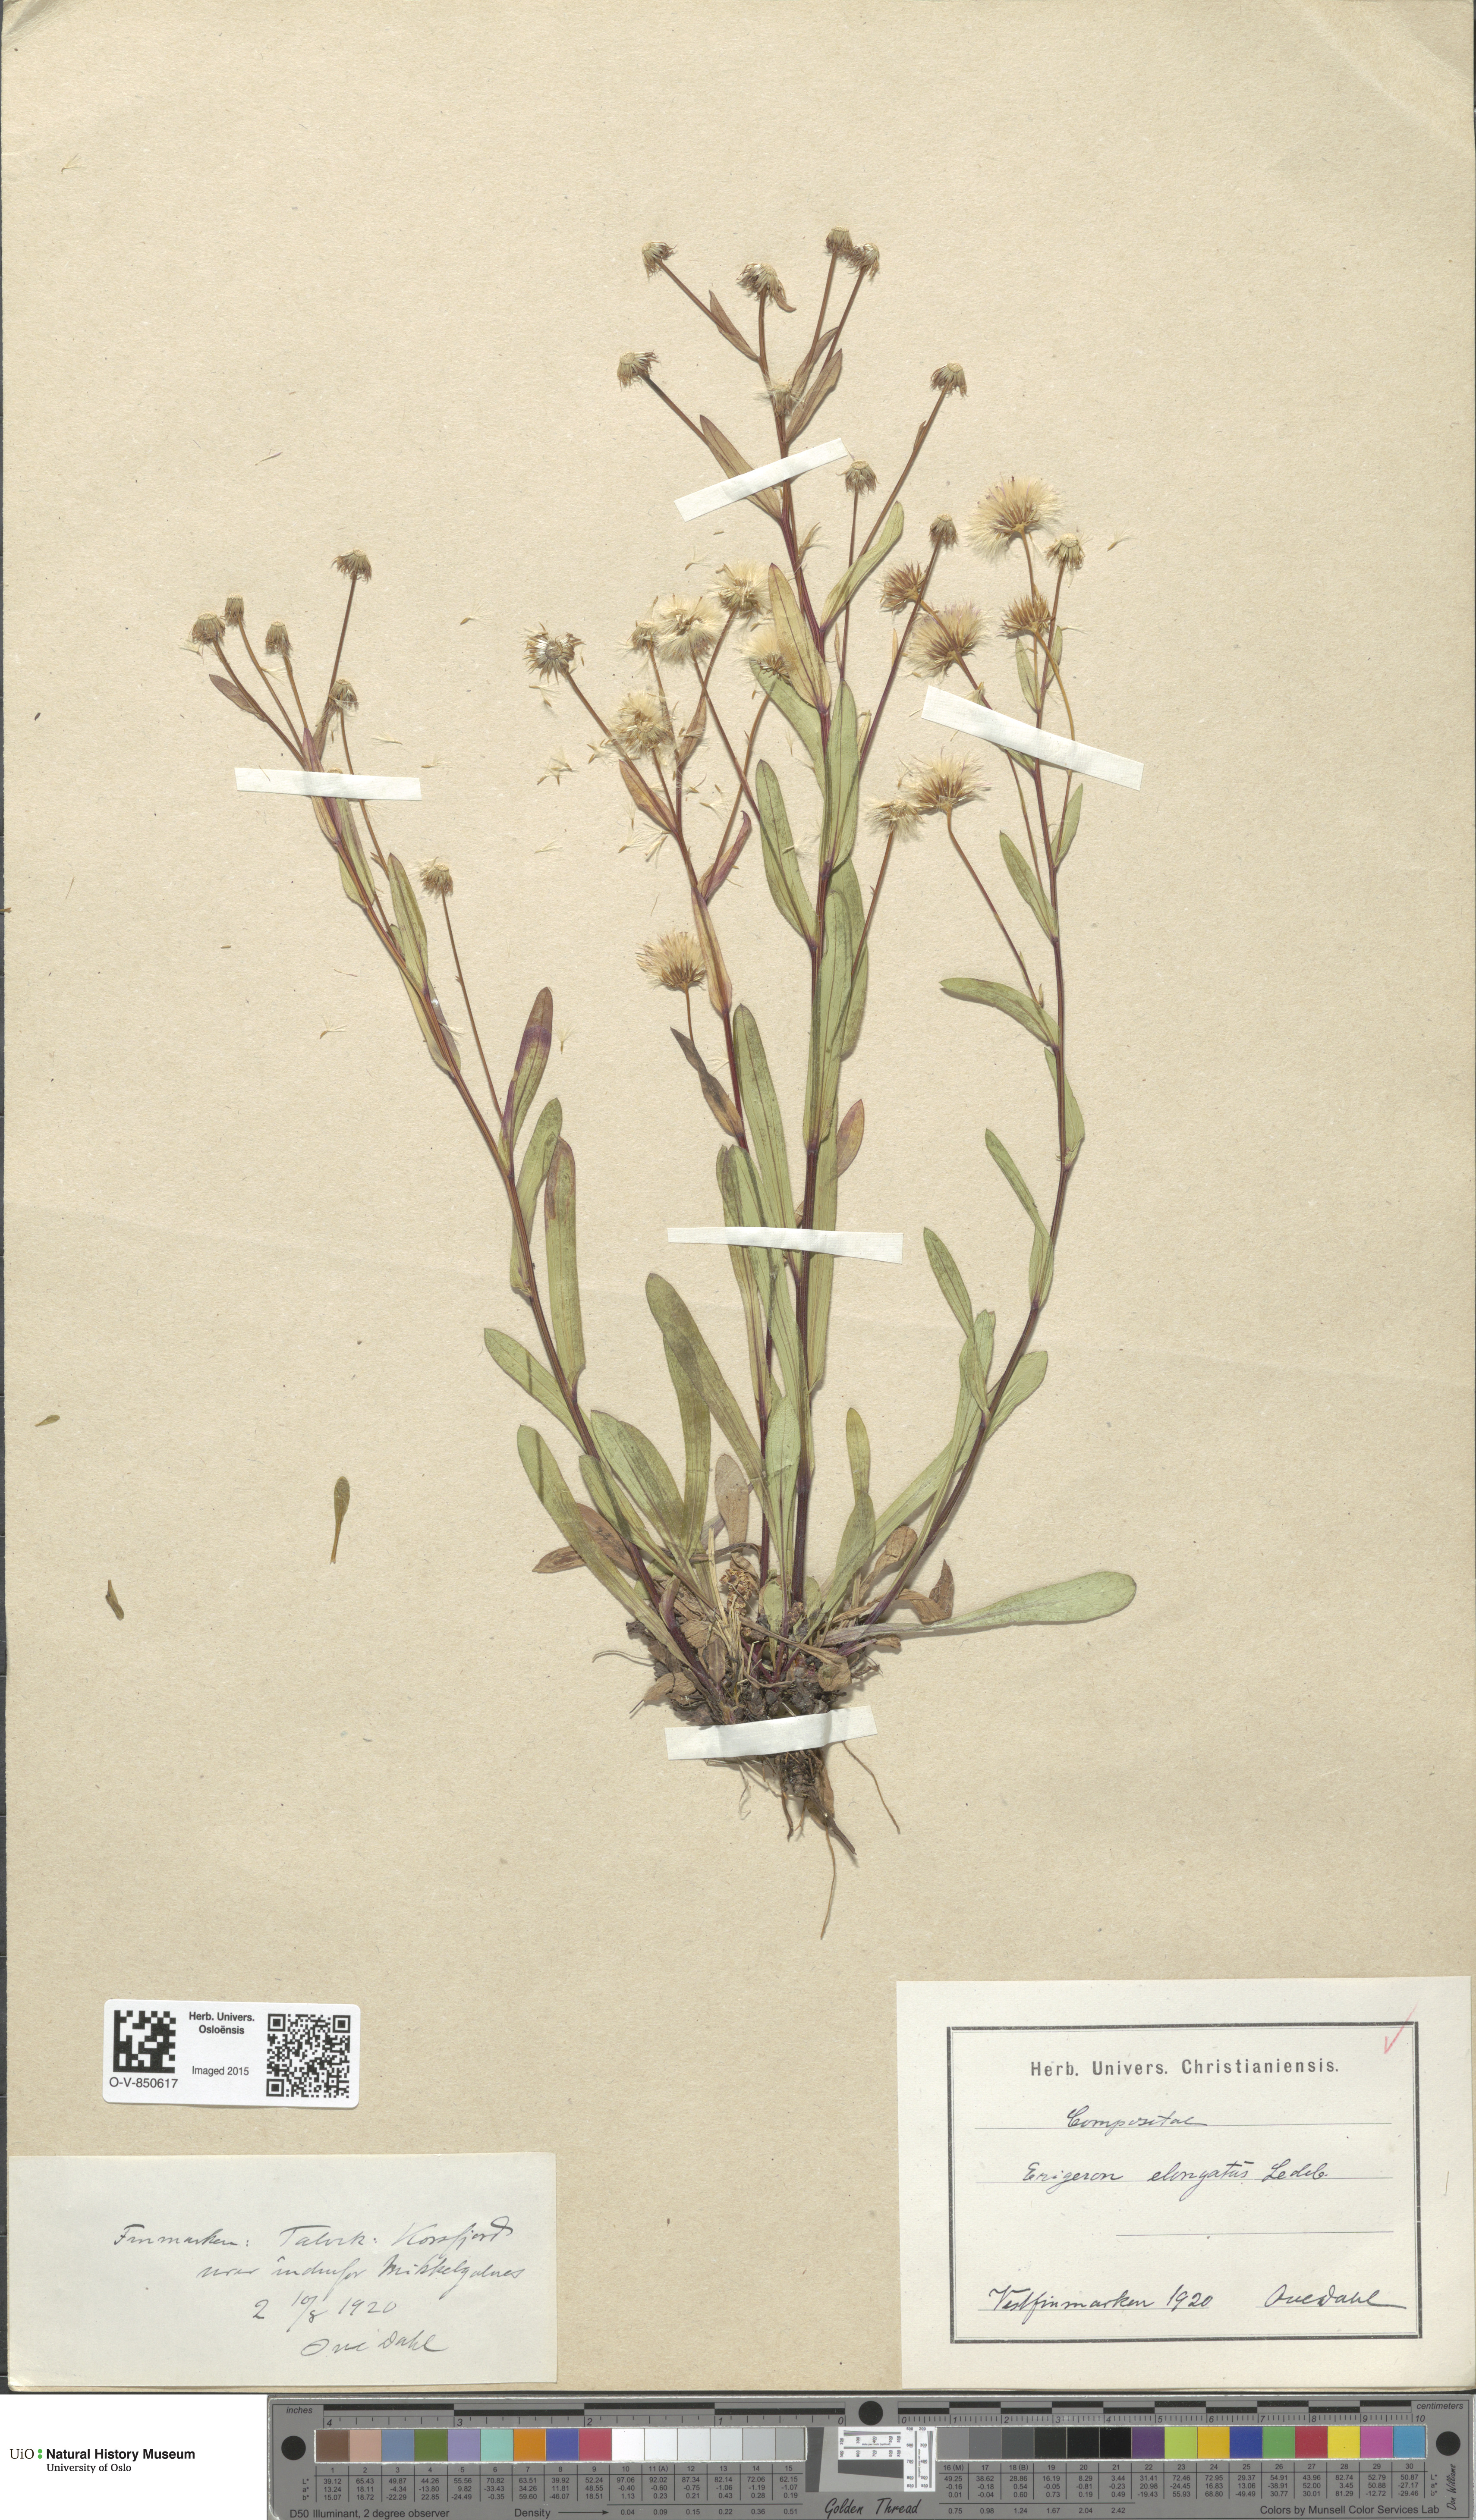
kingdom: Plantae
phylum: Tracheophyta
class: Magnoliopsida
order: Asterales
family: Asteraceae
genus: Erigeron
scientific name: Erigeron politus
